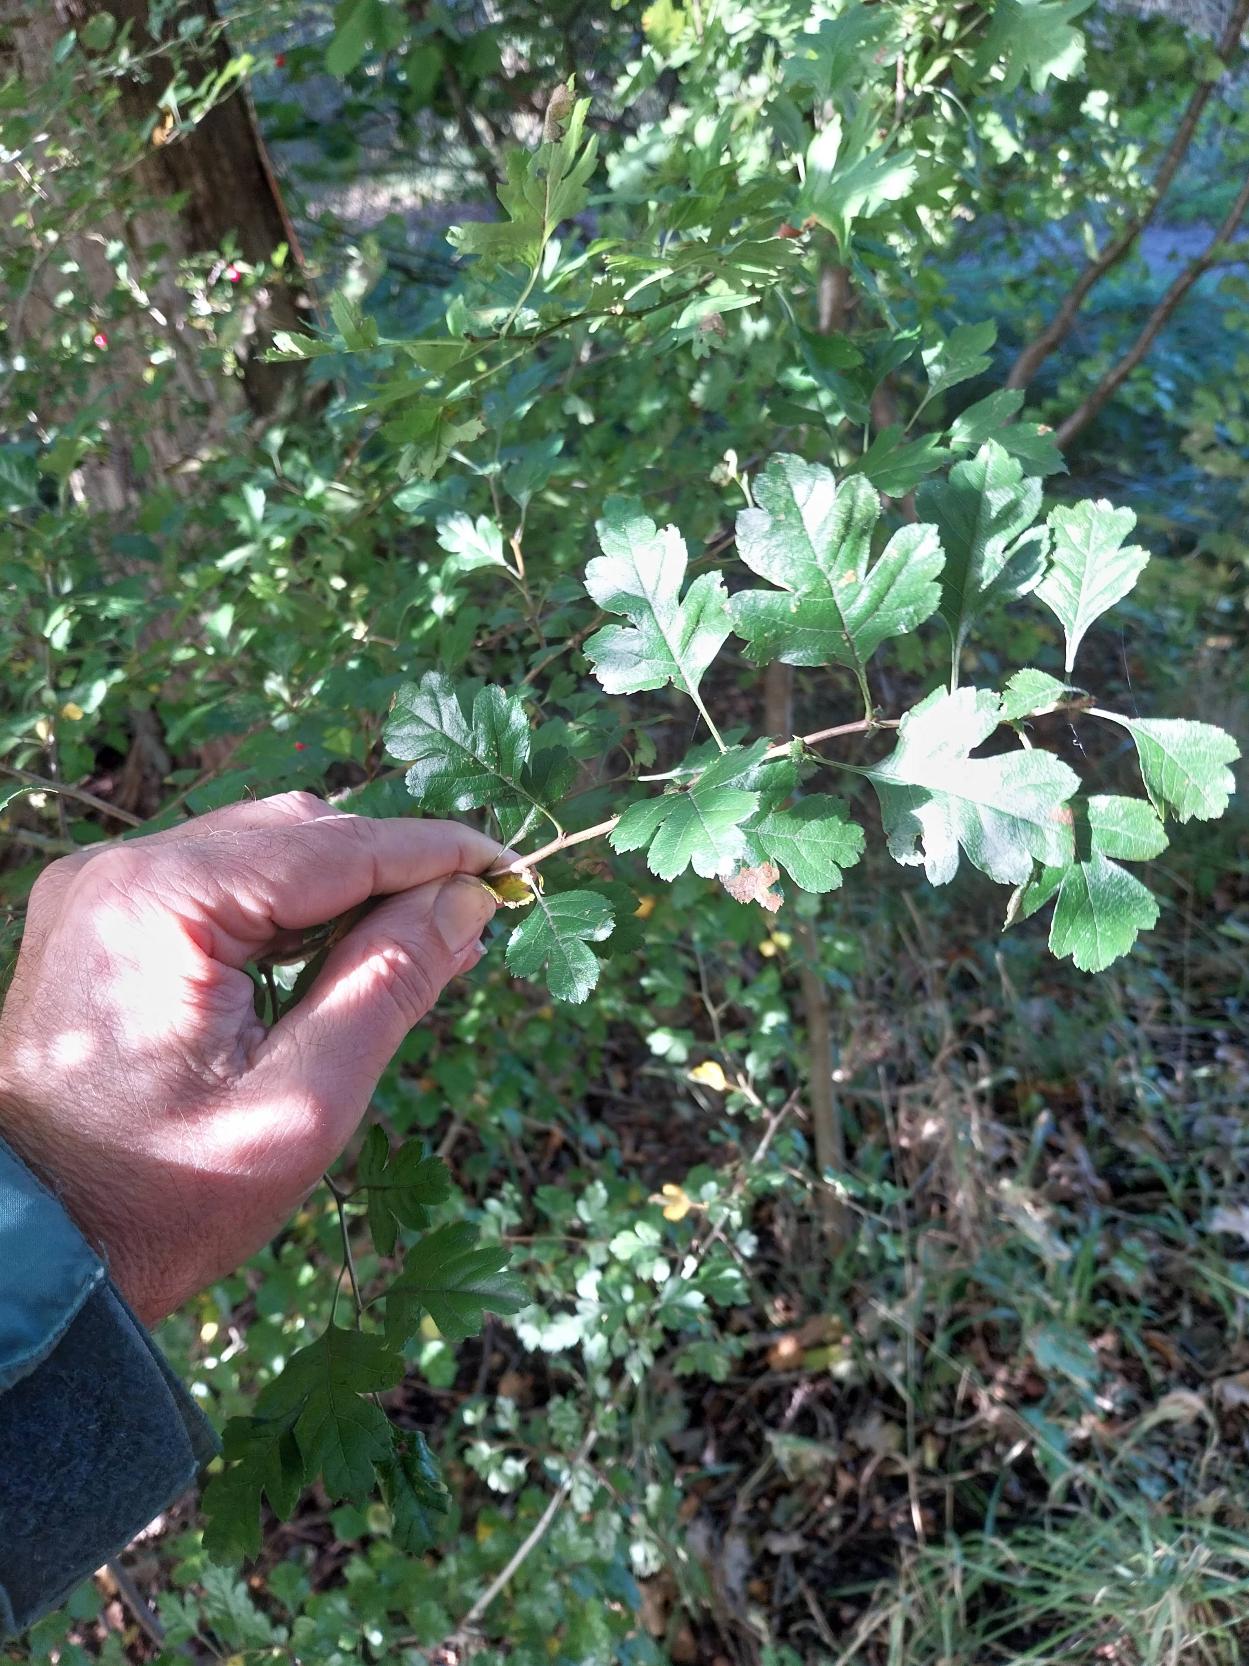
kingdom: Plantae
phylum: Tracheophyta
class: Magnoliopsida
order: Rosales
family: Rosaceae
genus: Crataegus
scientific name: Crataegus media
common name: Almindelig hvidtjørn × engriflet hvidtjørn
